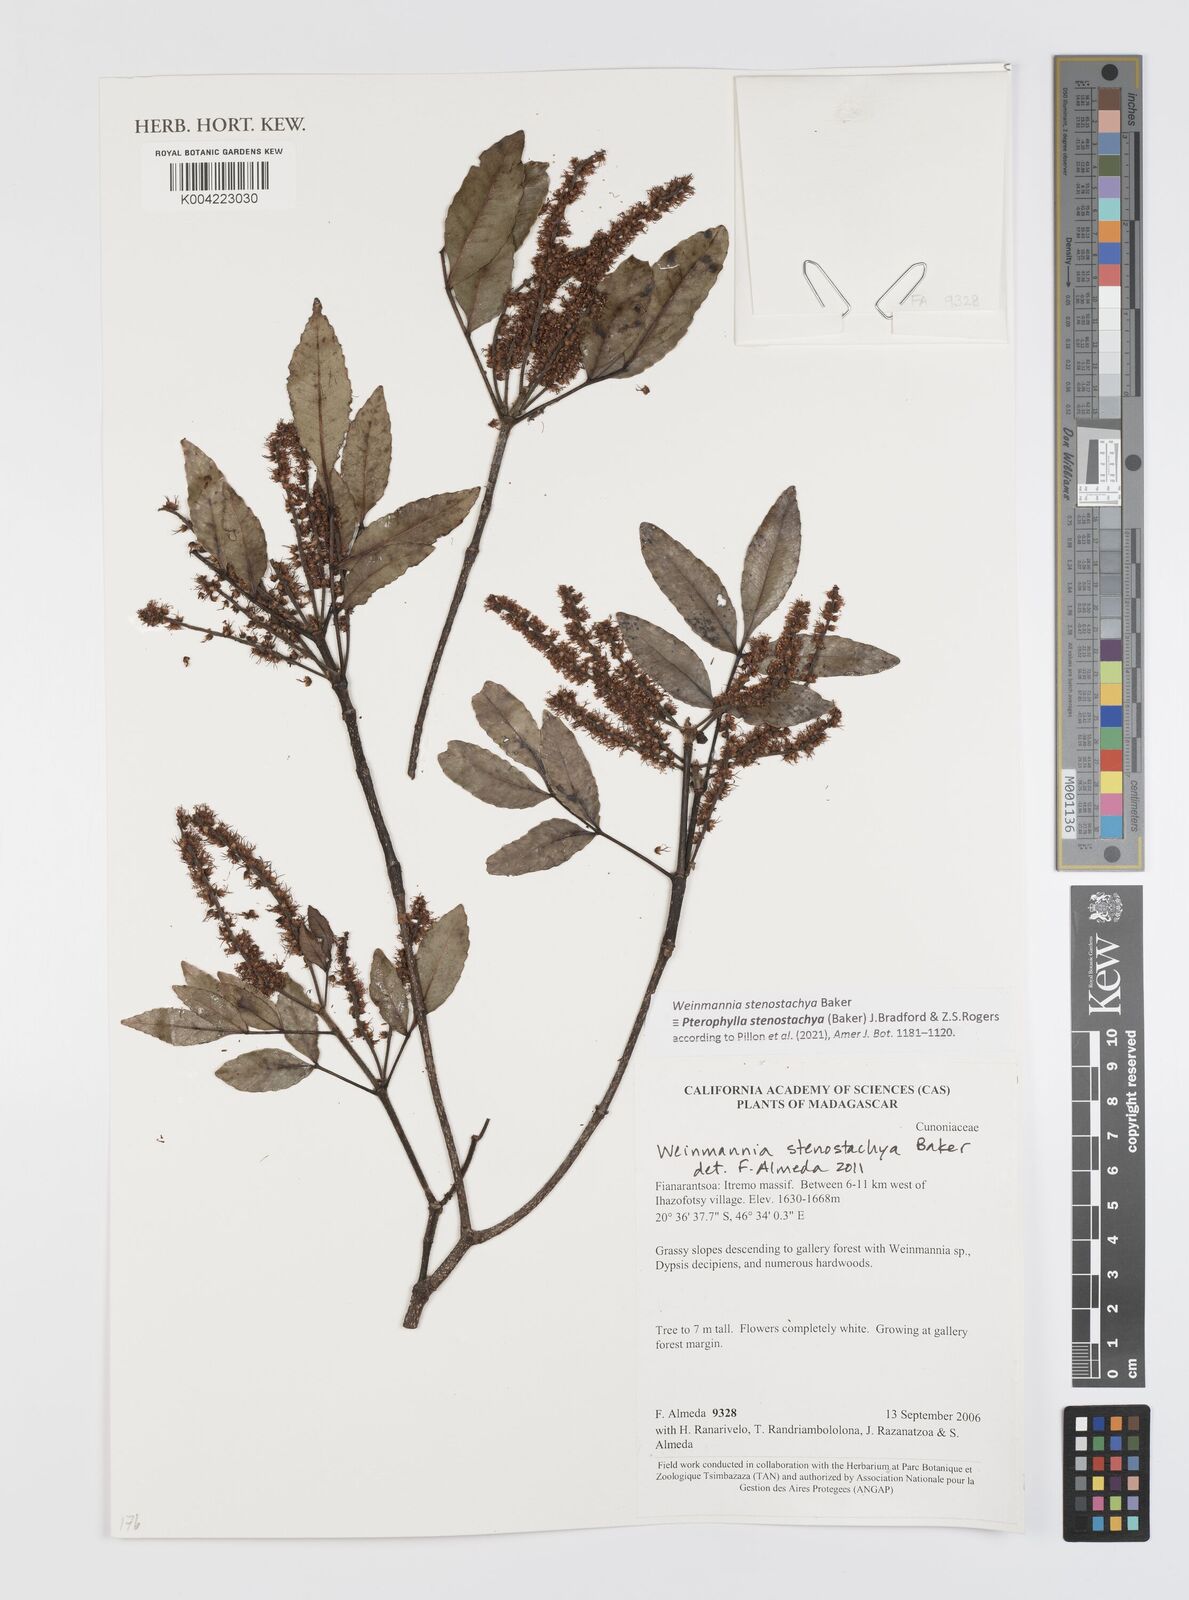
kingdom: Plantae
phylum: Tracheophyta
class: Magnoliopsida
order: Oxalidales
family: Cunoniaceae
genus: Pterophylla
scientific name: Pterophylla stenostachya
